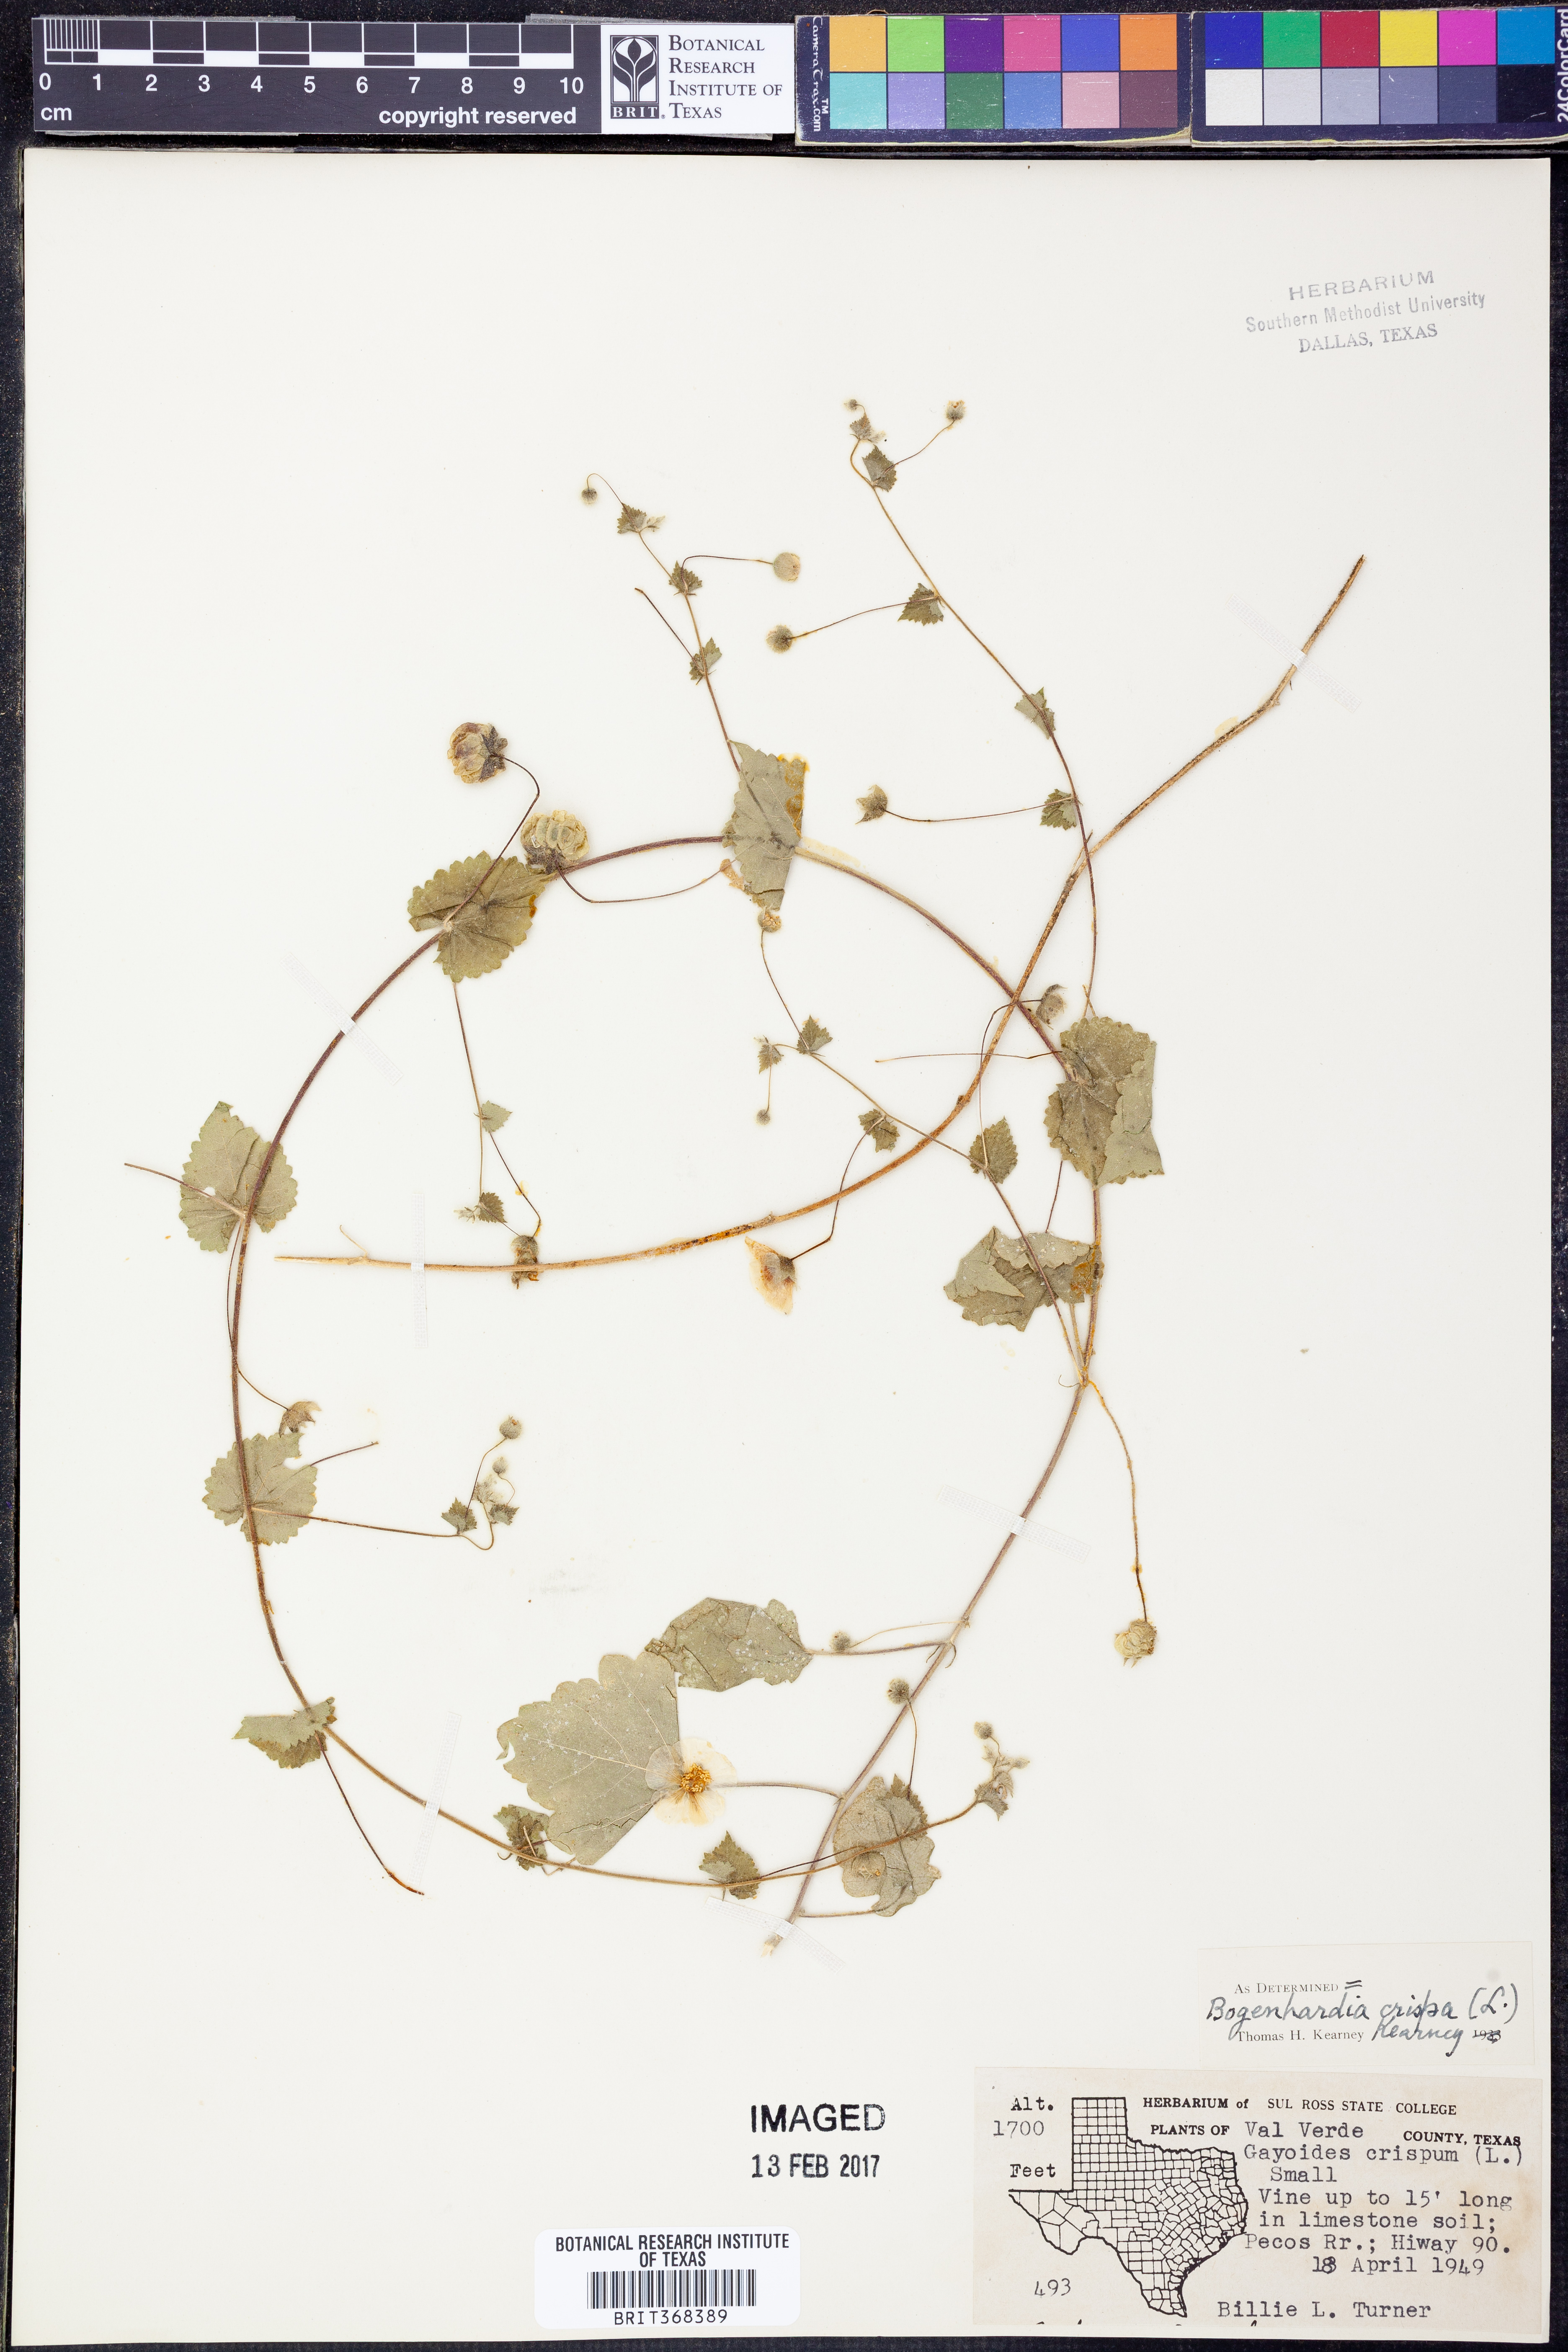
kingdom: Plantae
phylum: Tracheophyta
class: Magnoliopsida
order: Malvales
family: Malvaceae
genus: Herissantia
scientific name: Herissantia crispa
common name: Bladdermallow
